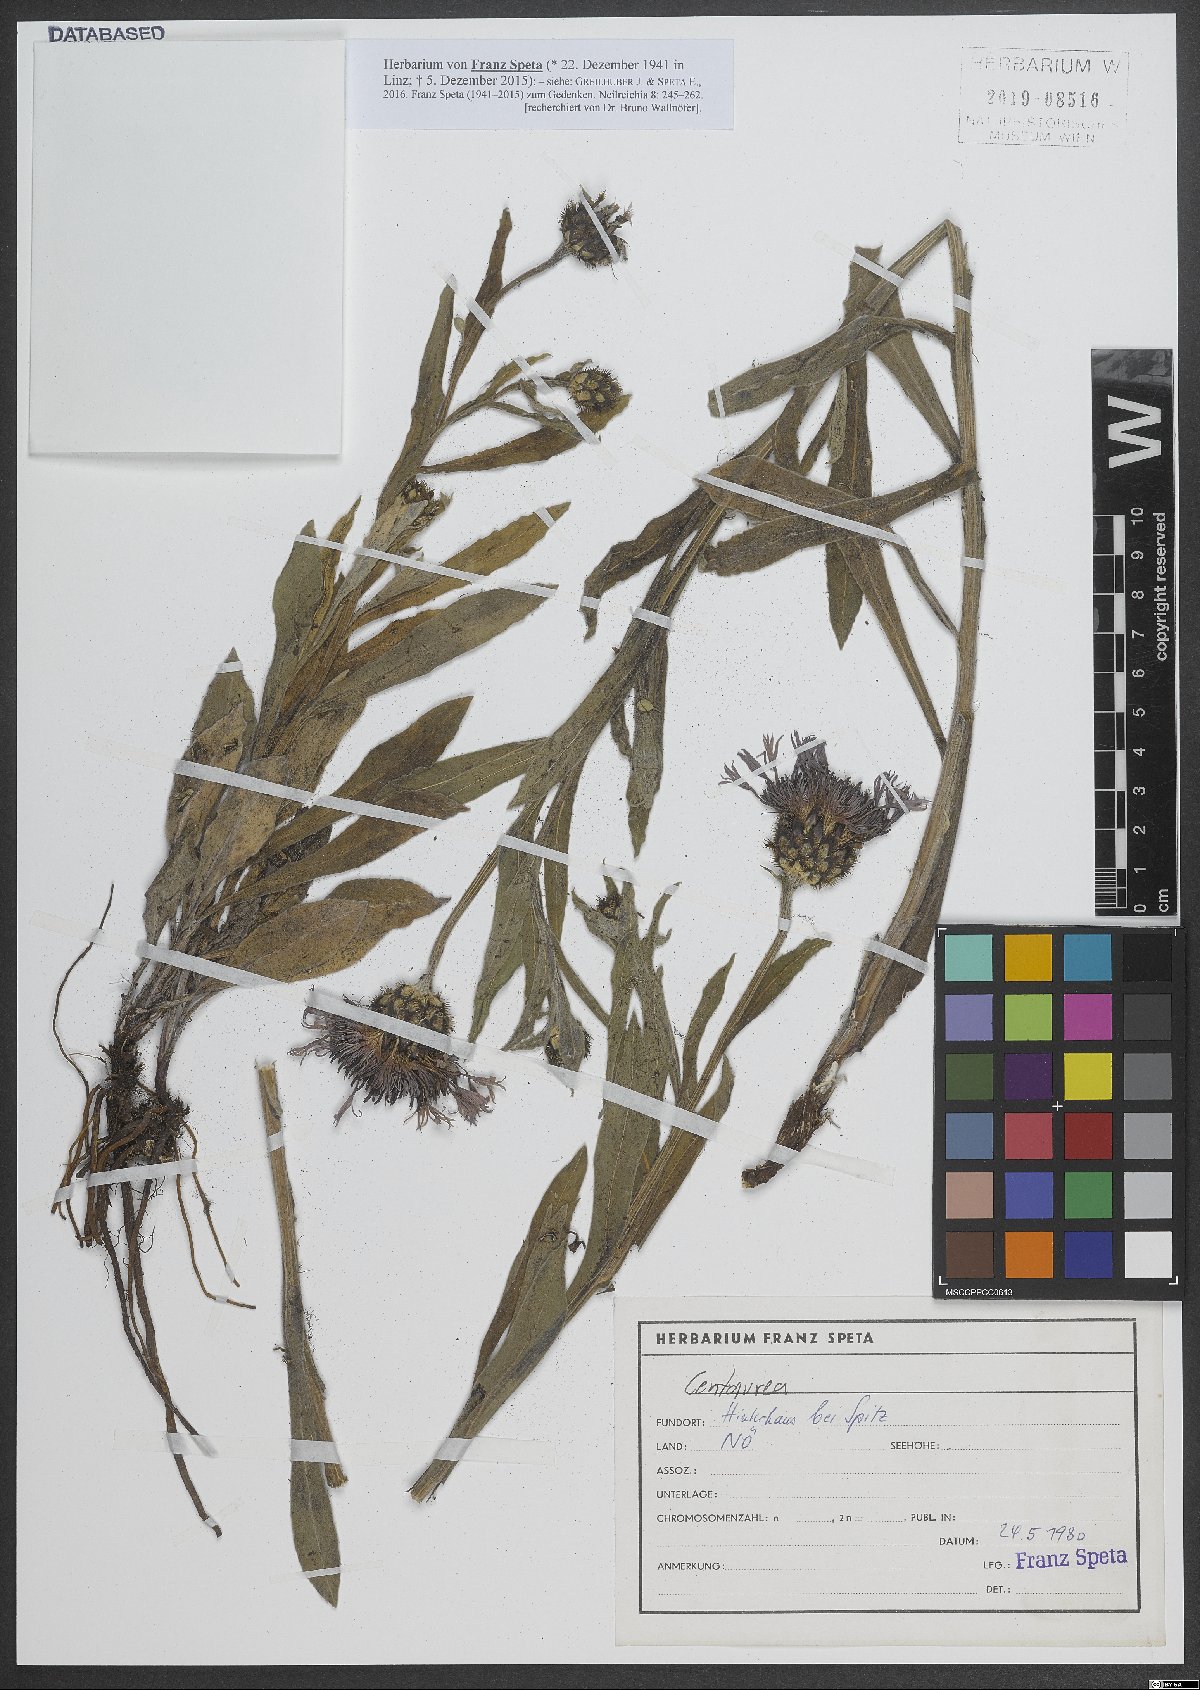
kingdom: Plantae
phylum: Tracheophyta
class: Magnoliopsida
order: Asterales
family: Asteraceae
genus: Centaurea
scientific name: Centaurea
